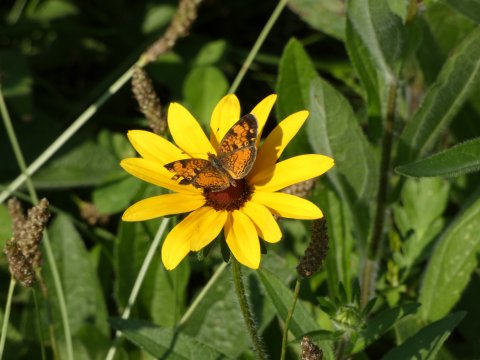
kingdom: Animalia
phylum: Arthropoda
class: Insecta
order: Lepidoptera
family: Nymphalidae
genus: Phyciodes
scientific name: Phyciodes tharos
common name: Pearl Crescent
